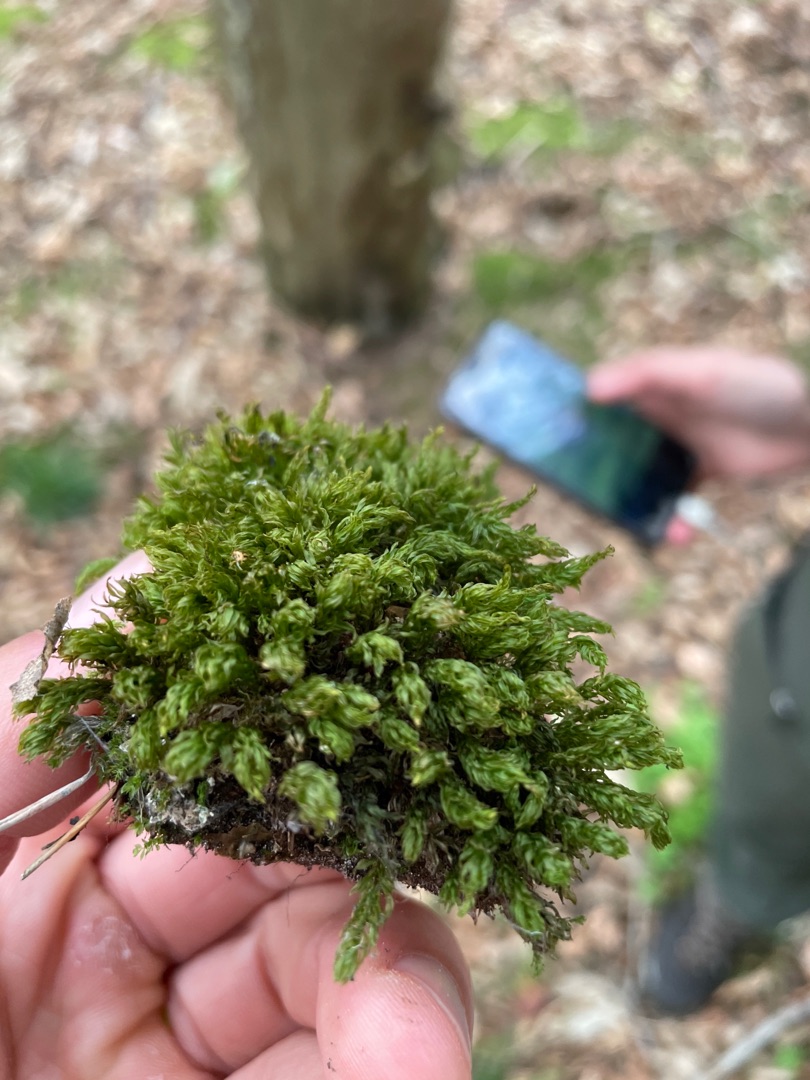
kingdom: Plantae
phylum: Bryophyta
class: Bryopsida
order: Bryales
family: Mniaceae
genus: Mnium
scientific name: Mnium hornum
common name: Brunfiltet stjernemos
